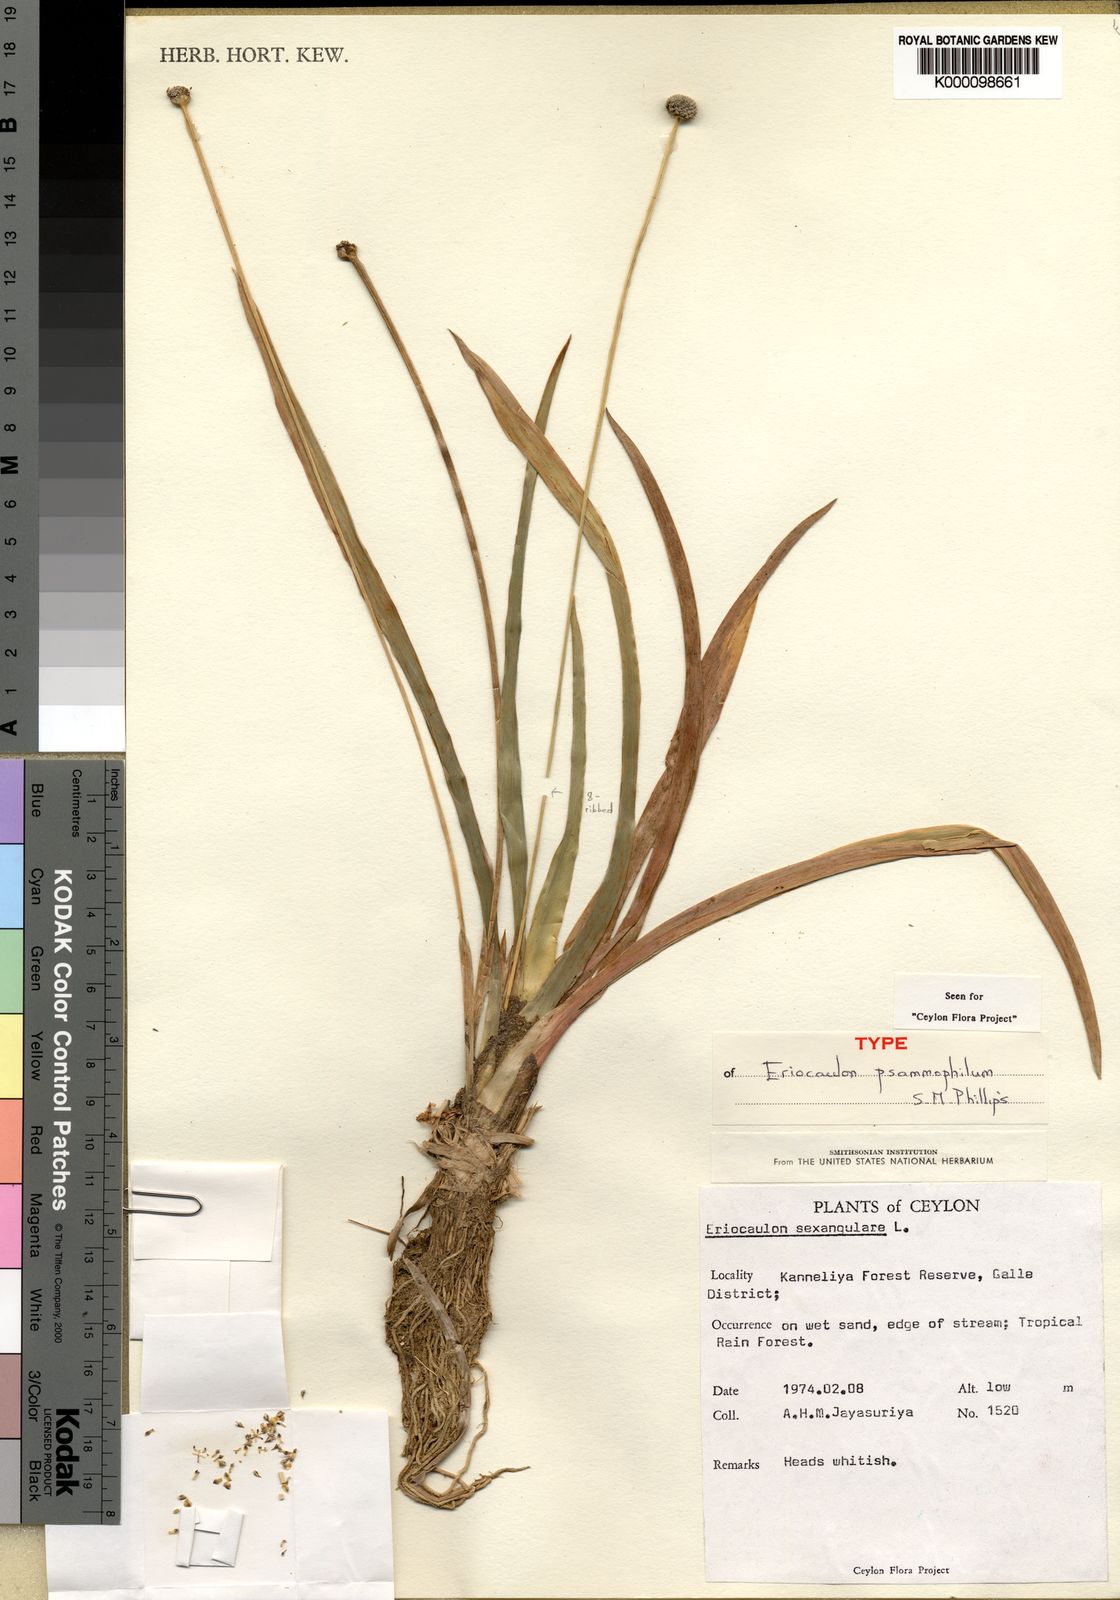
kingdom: Plantae
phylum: Tracheophyta
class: Liliopsida
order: Poales
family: Eriocaulaceae
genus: Eriocaulon
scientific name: Eriocaulon psammophilum
